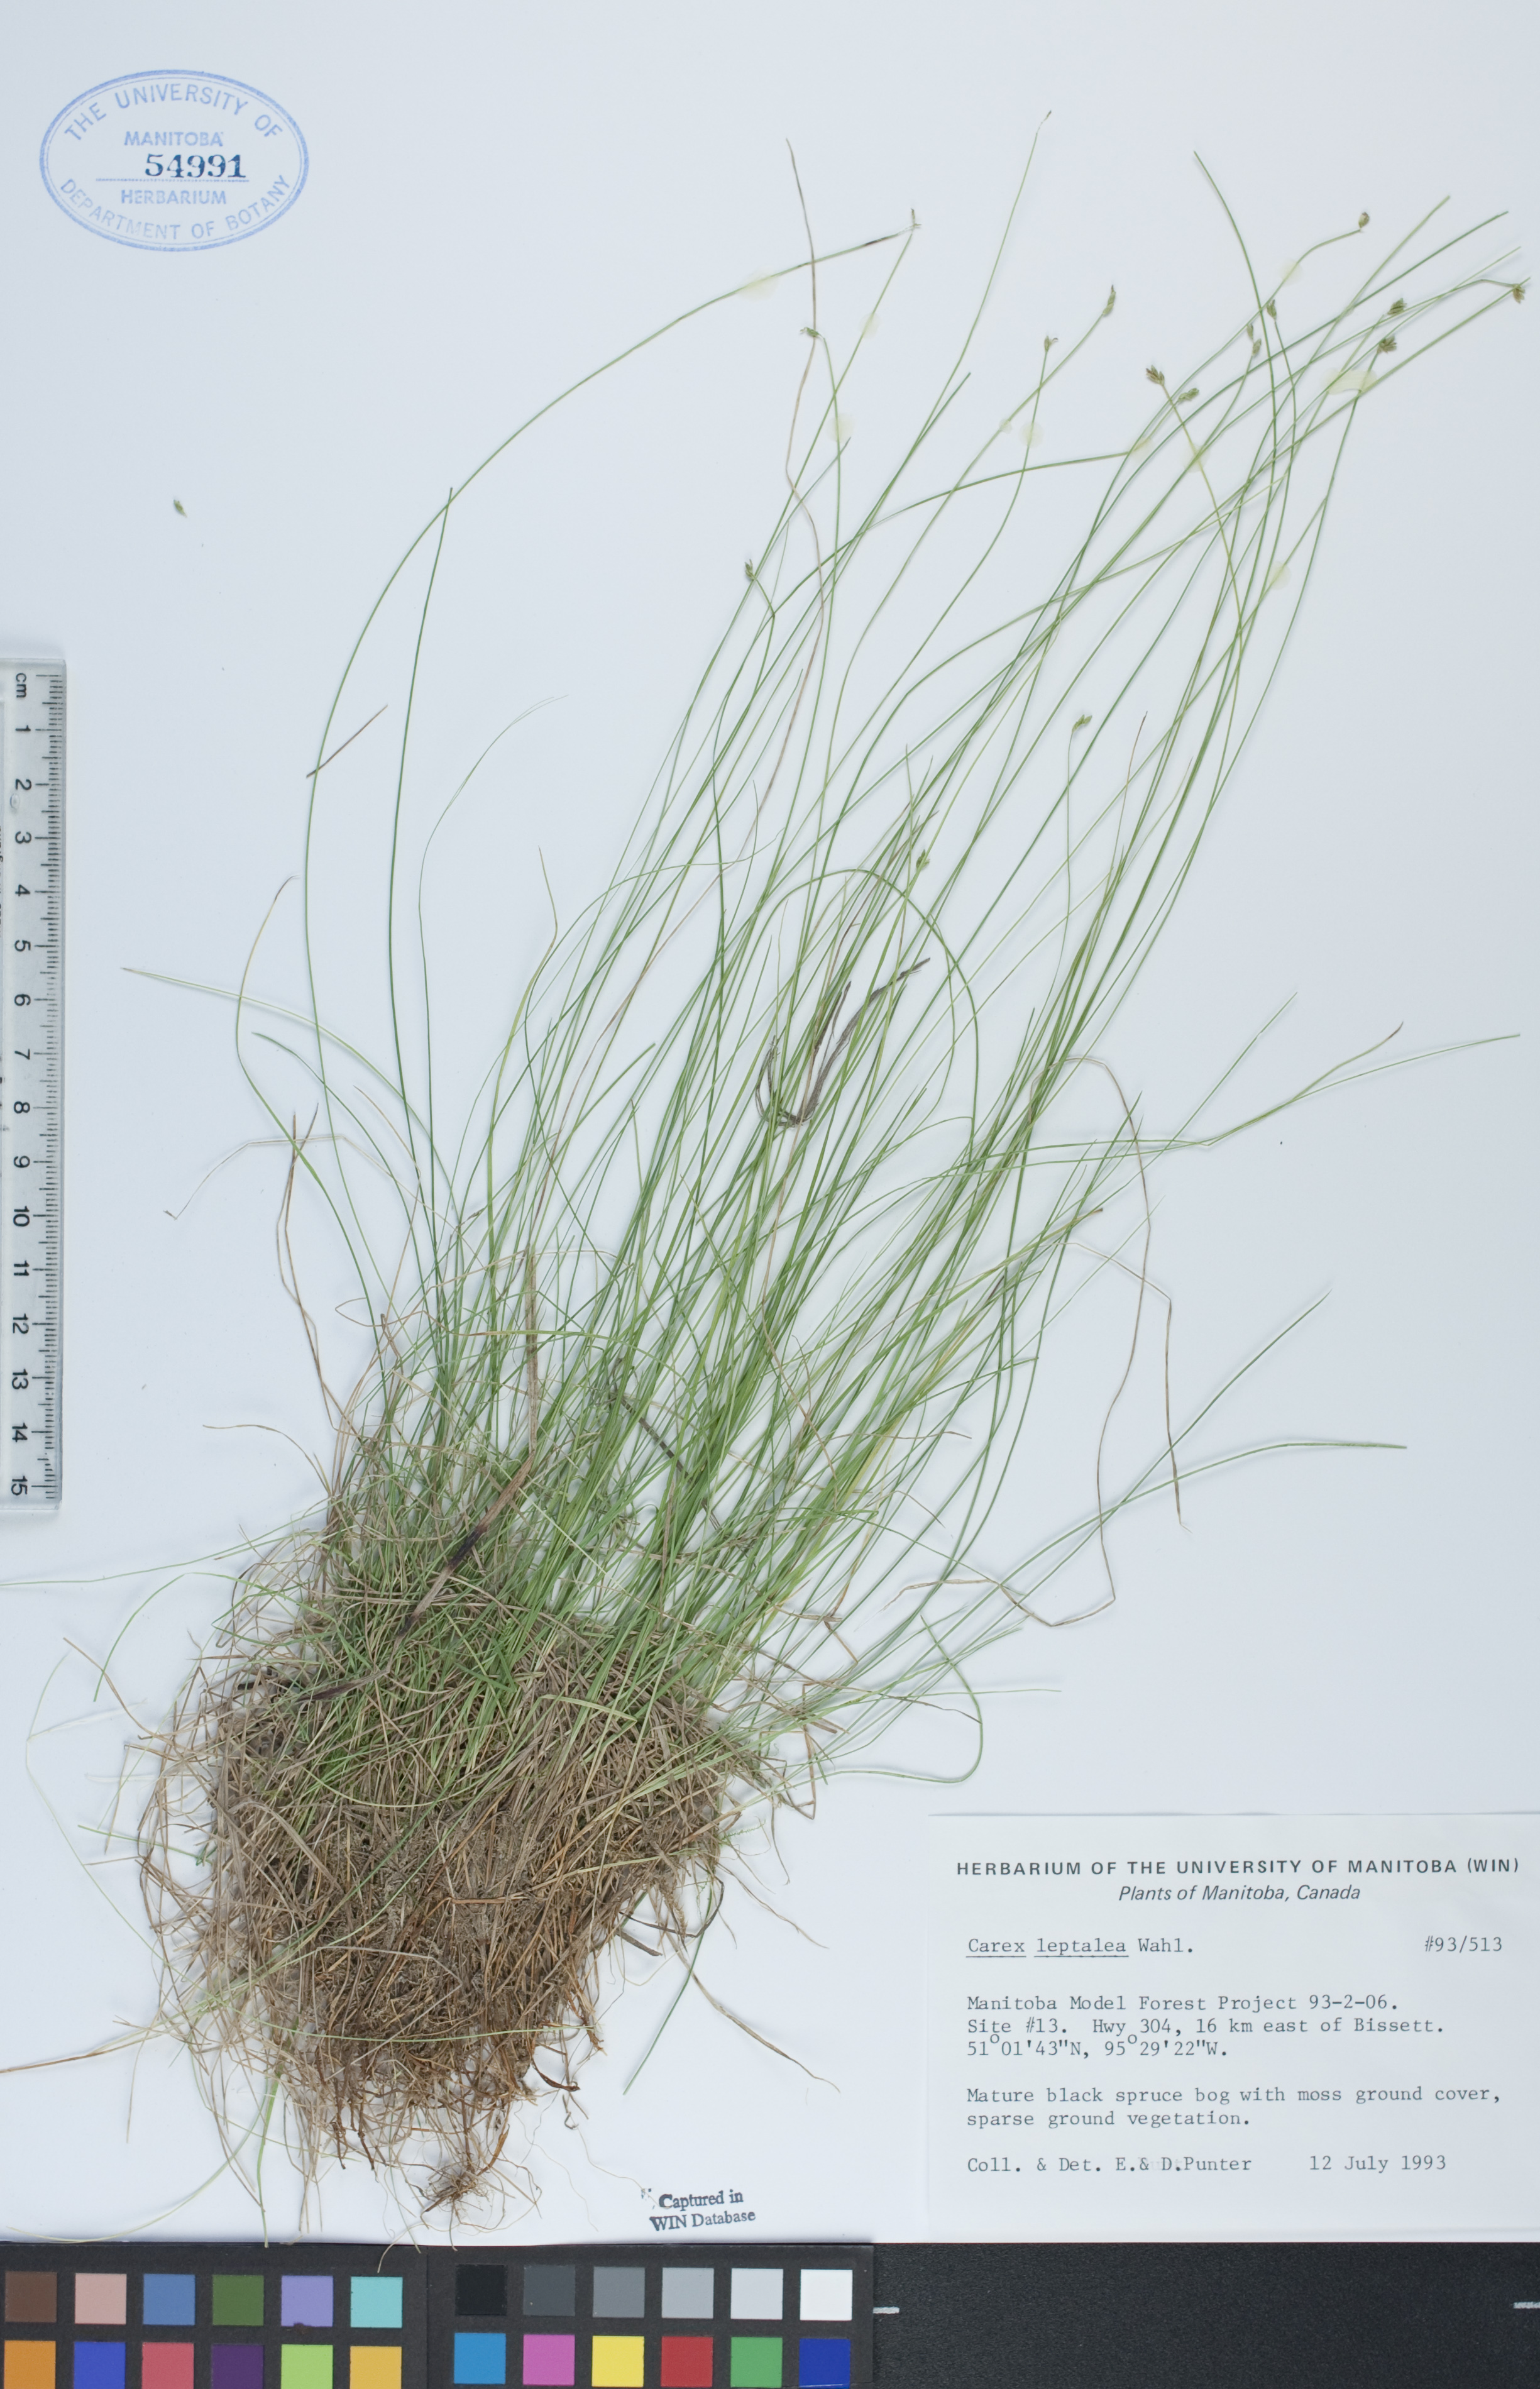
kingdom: Plantae
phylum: Tracheophyta
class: Liliopsida
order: Poales
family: Cyperaceae
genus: Carex
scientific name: Carex leptalea
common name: Bristly-stalked sedge
